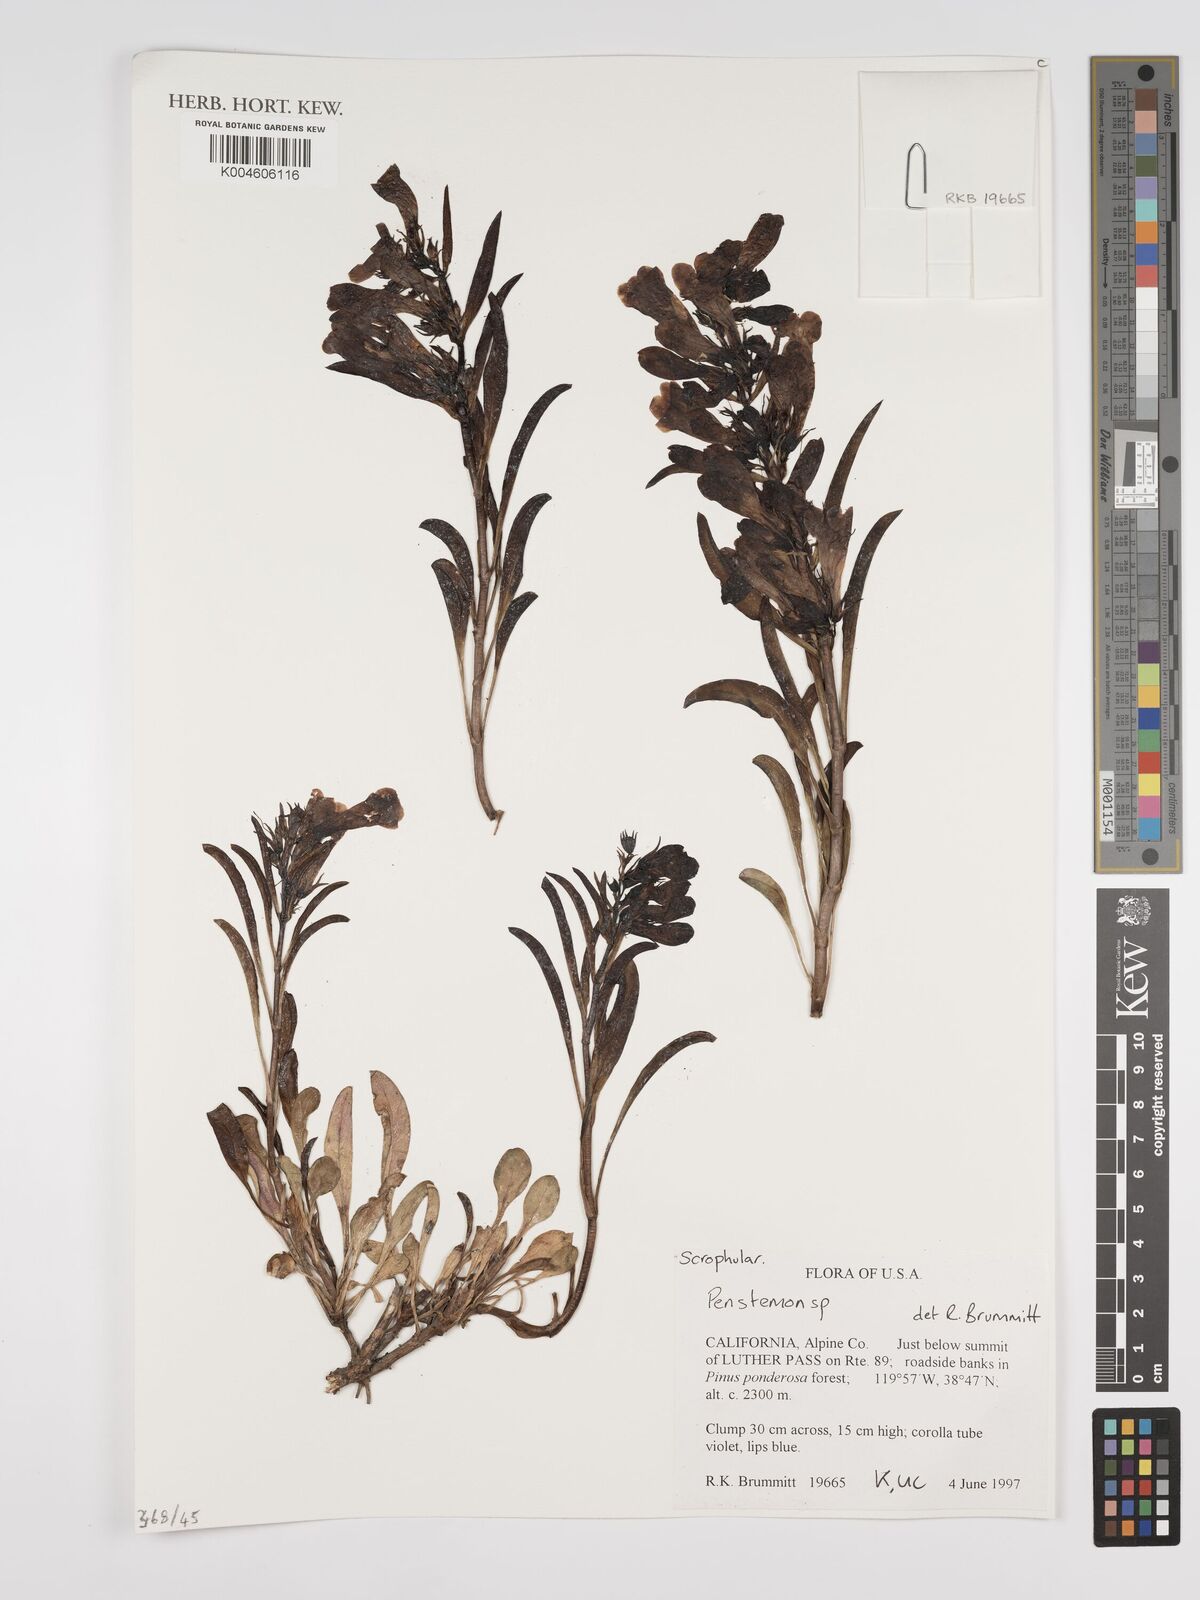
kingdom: Plantae
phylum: Tracheophyta
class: Magnoliopsida
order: Lamiales
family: Plantaginaceae
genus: Penstemon
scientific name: Penstemon
